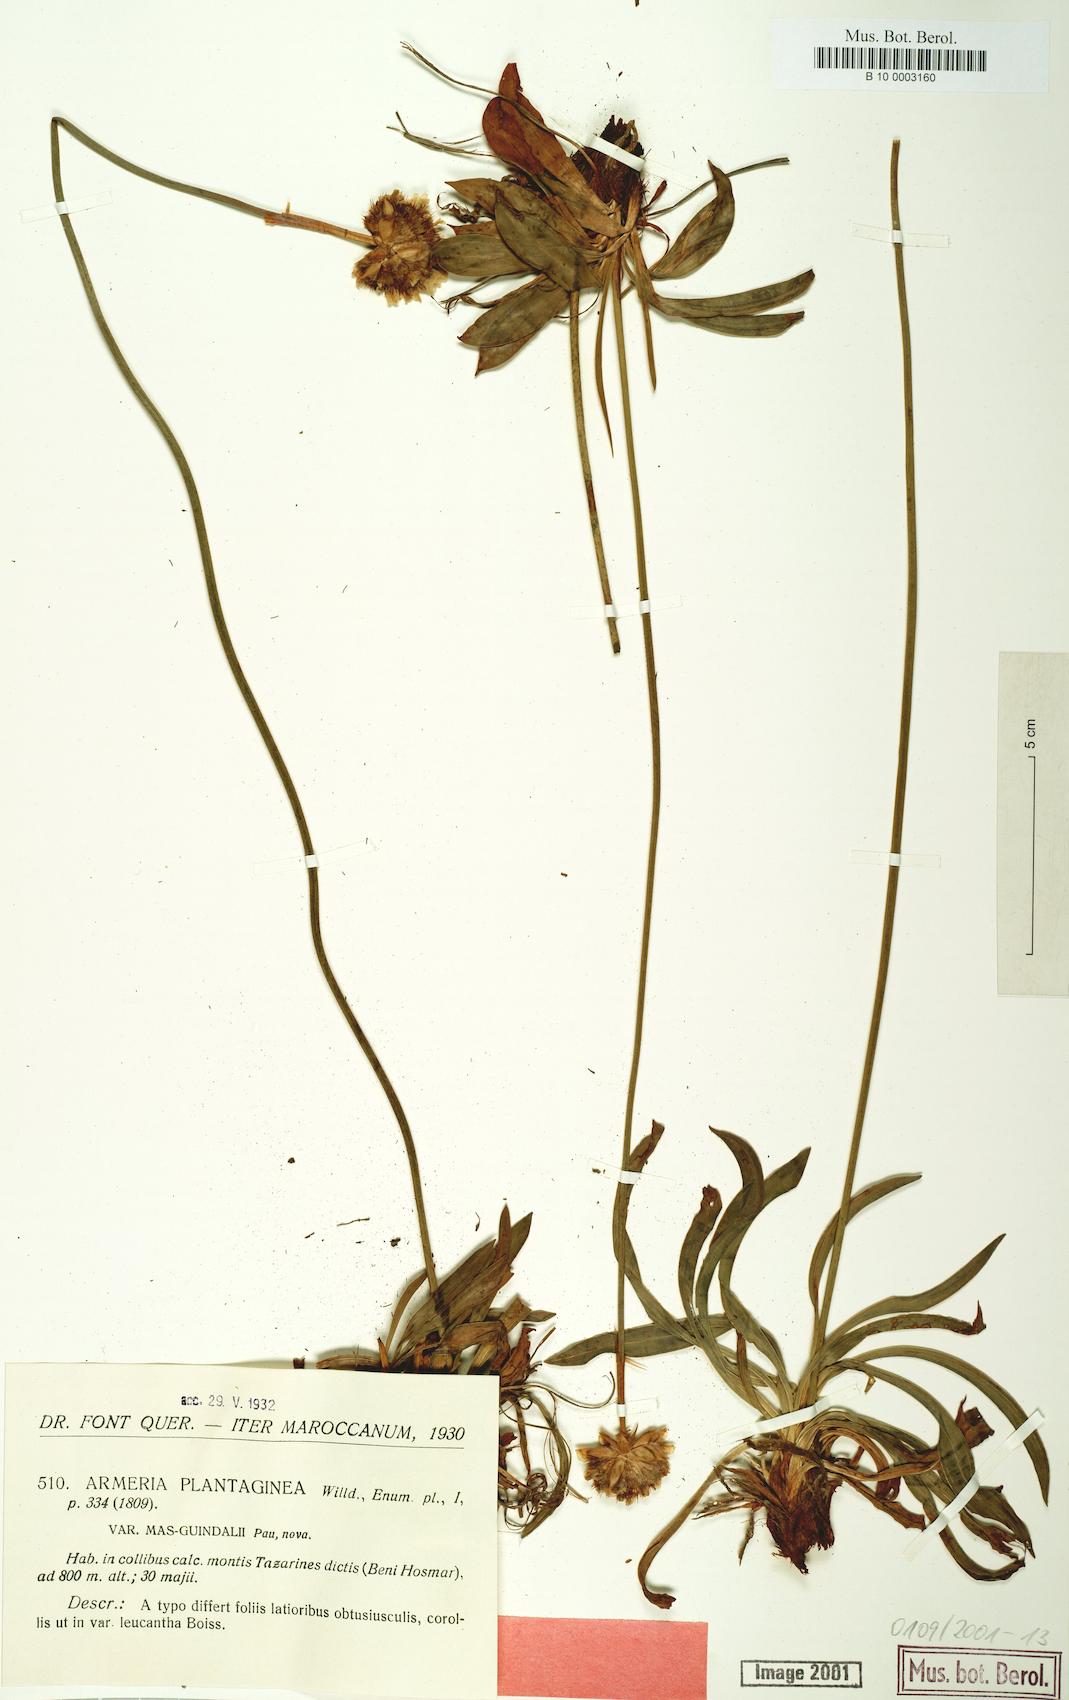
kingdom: Plantae
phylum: Tracheophyta
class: Magnoliopsida
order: Caryophyllales
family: Plumbaginaceae
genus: Armeria
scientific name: Armeria arenaria
